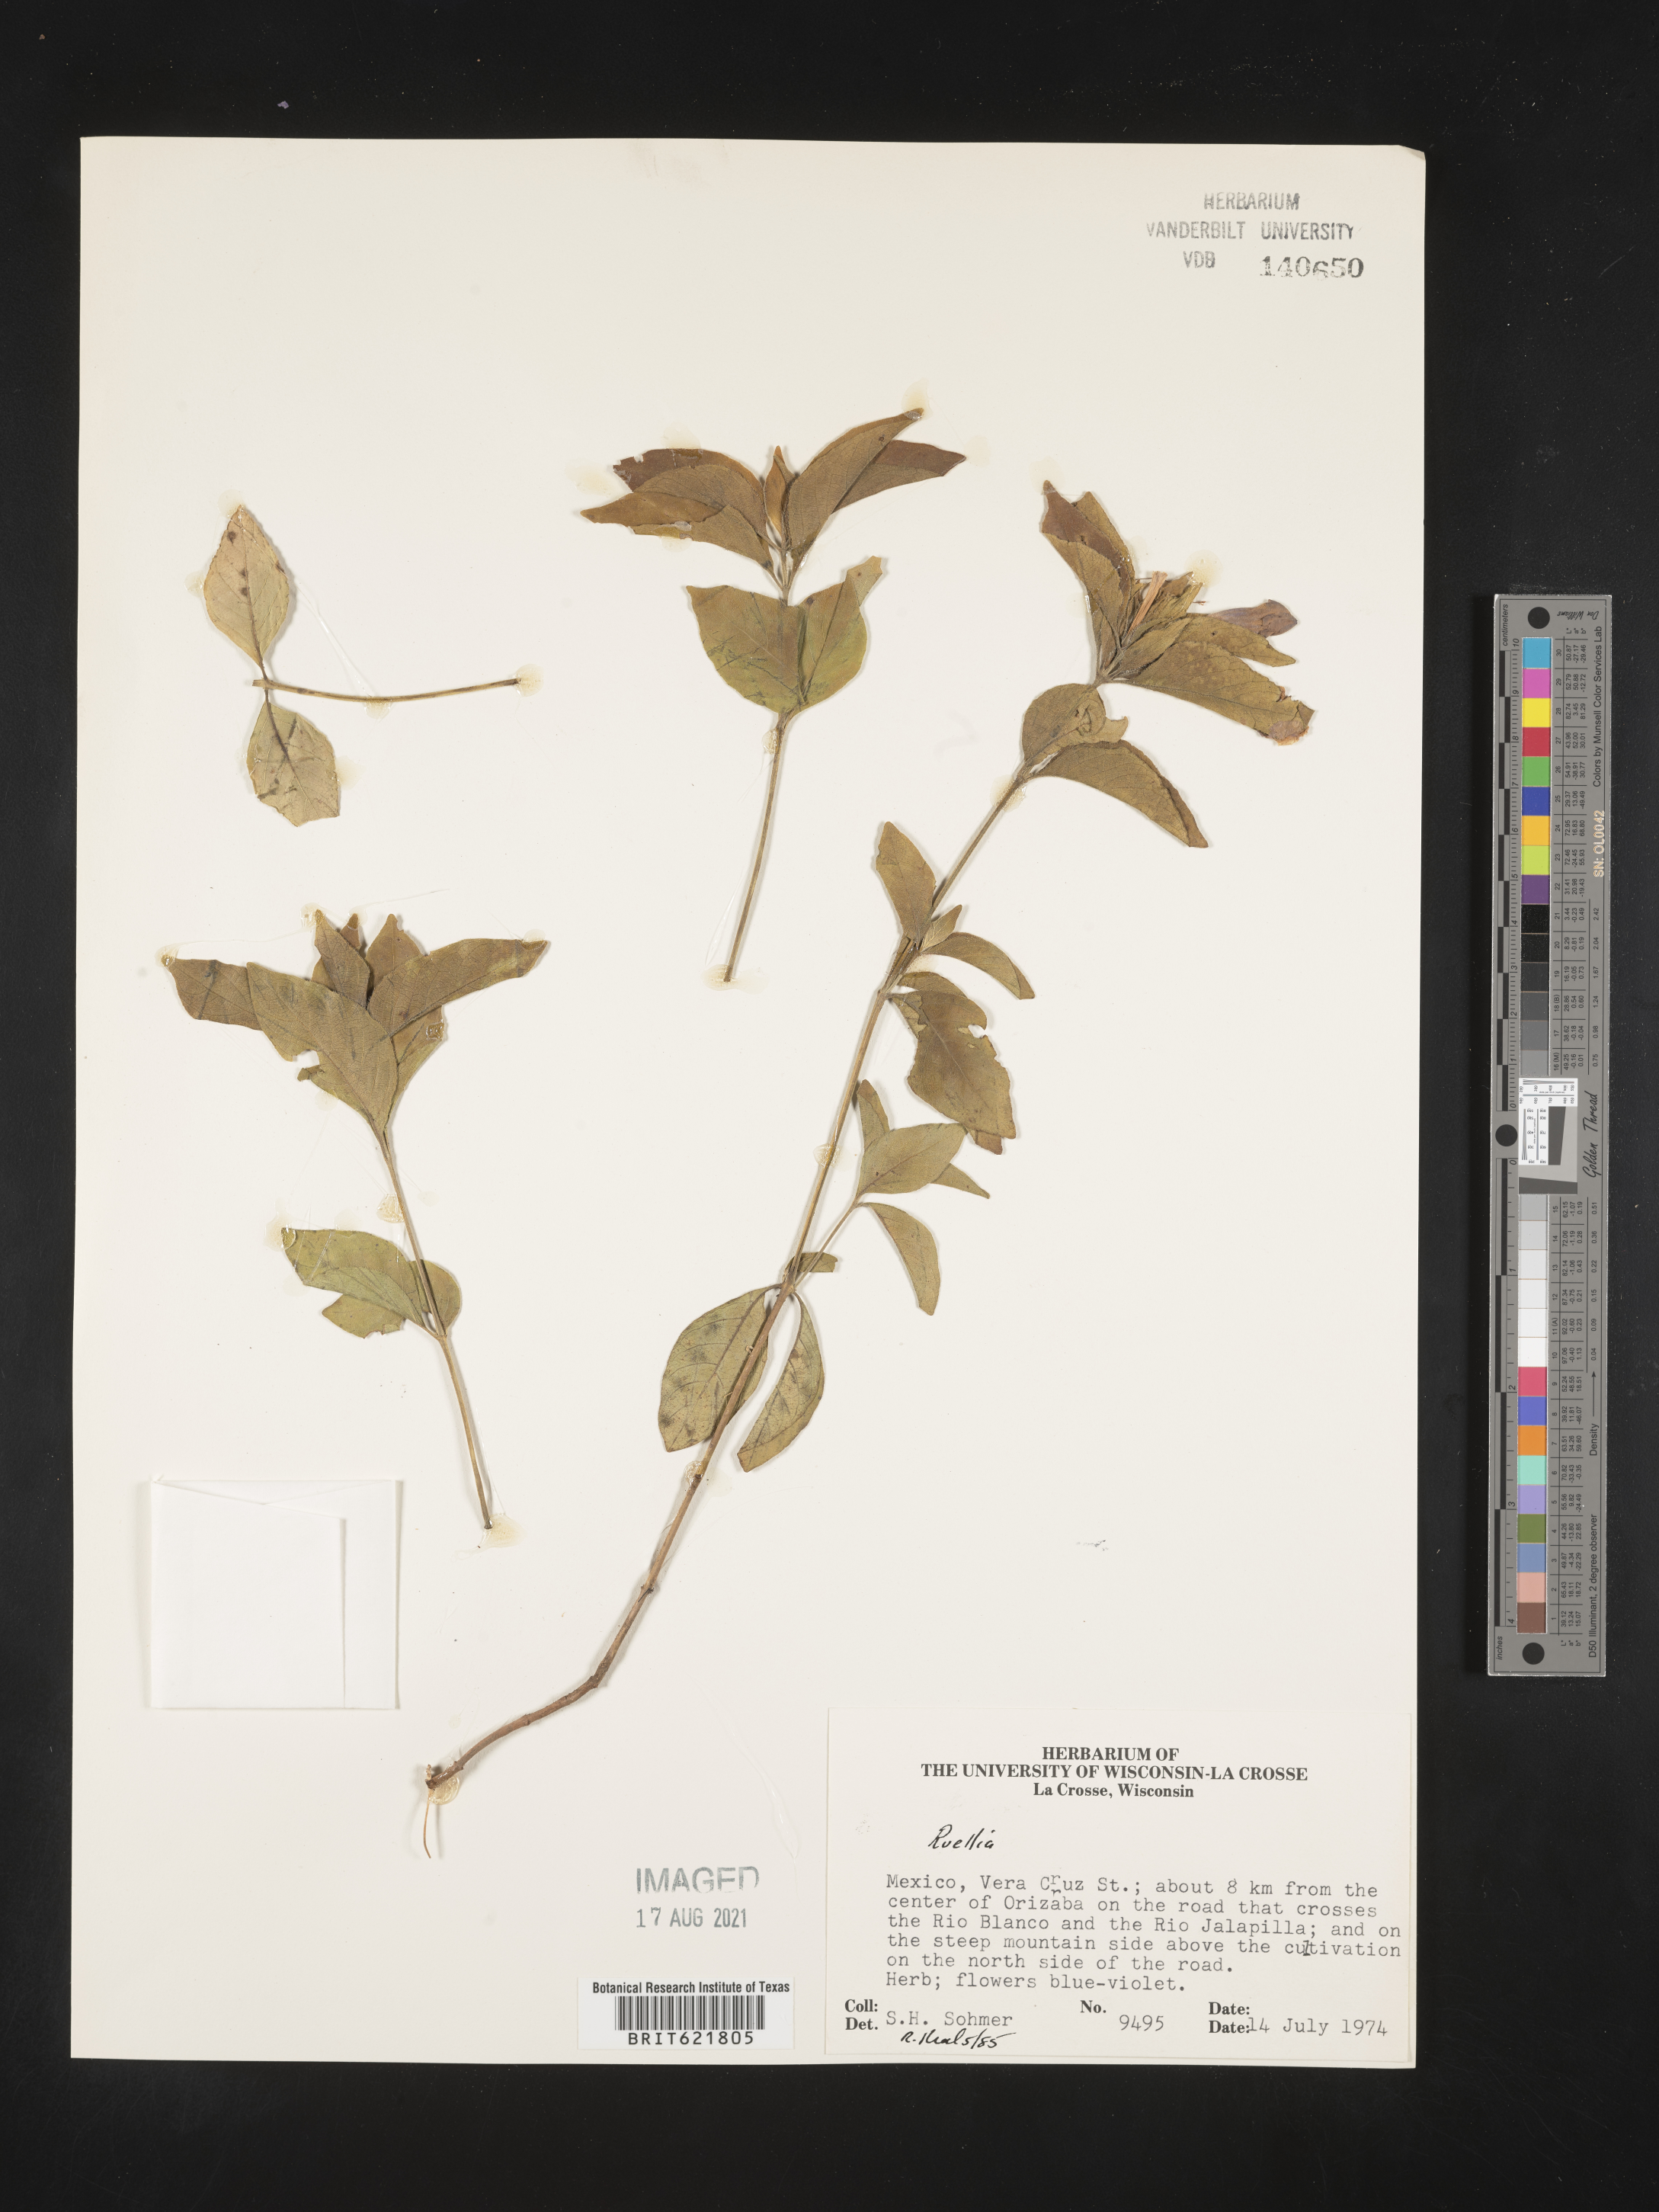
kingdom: Plantae
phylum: Tracheophyta
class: Magnoliopsida
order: Lamiales
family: Acanthaceae
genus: Ruellia
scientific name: Ruellia
